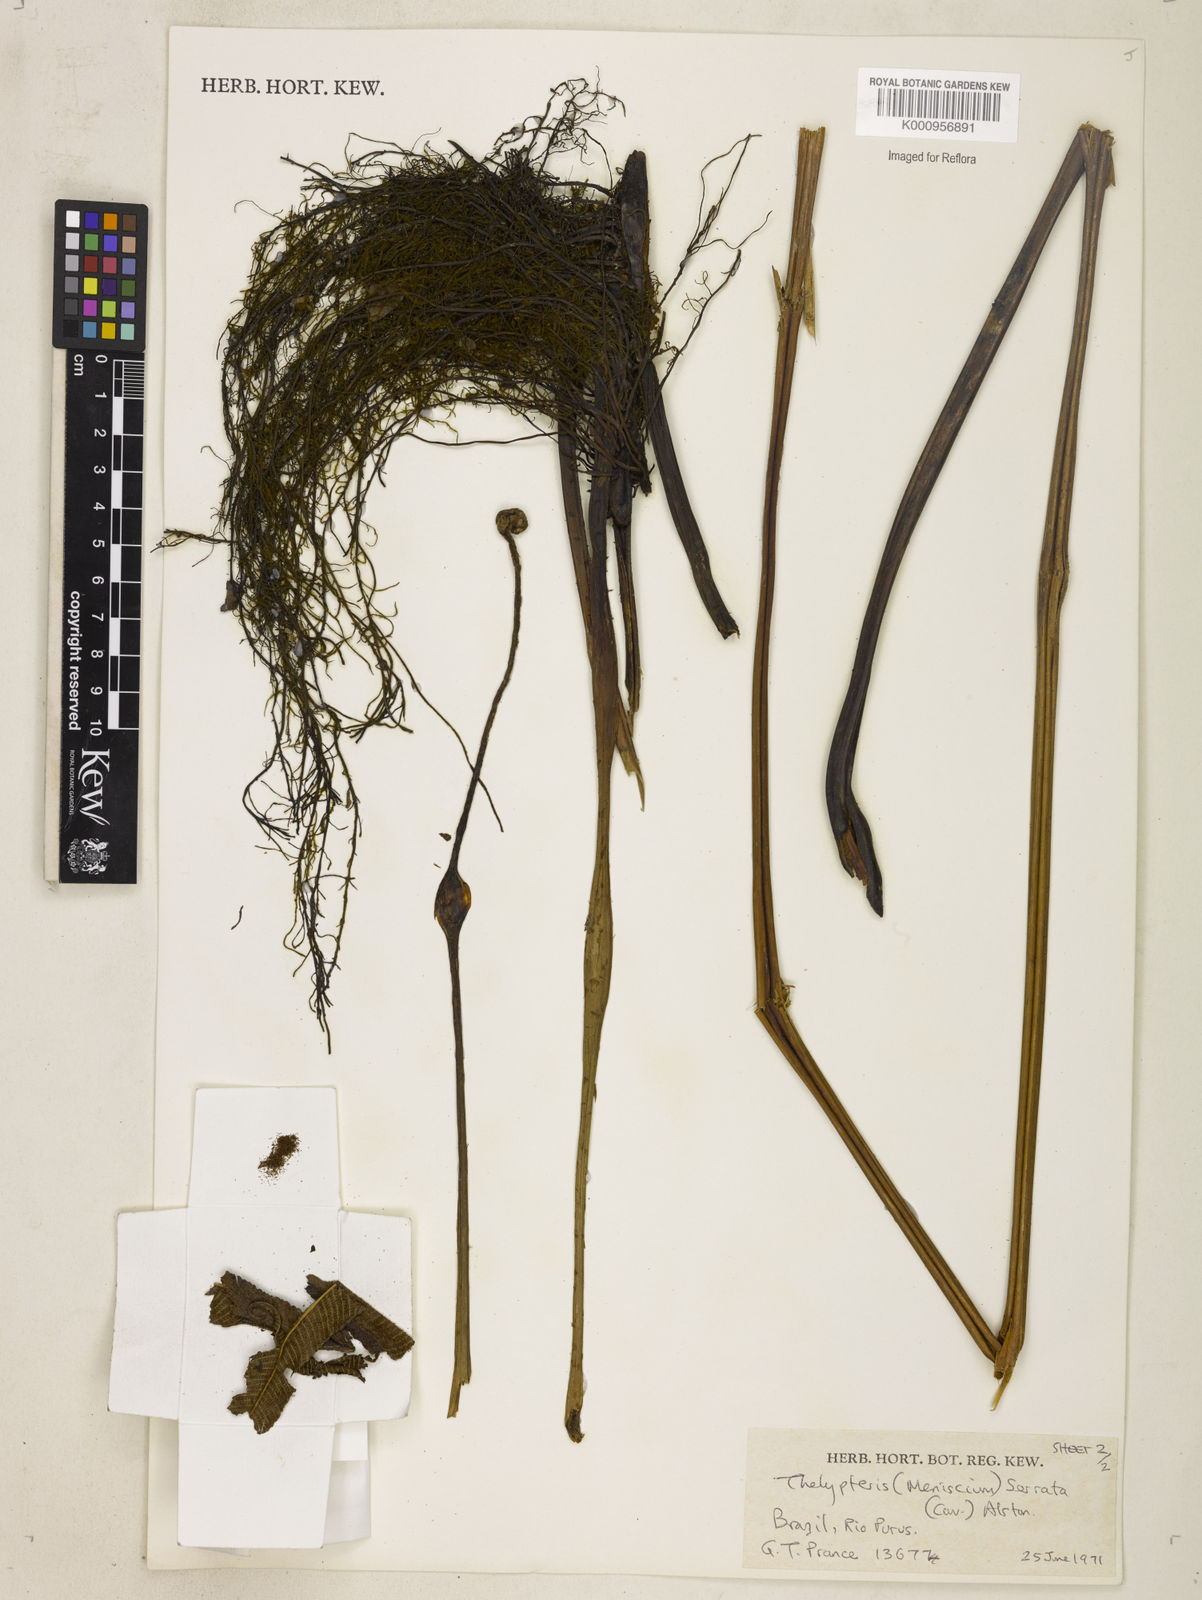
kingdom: Plantae
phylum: Tracheophyta
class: Polypodiopsida
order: Polypodiales
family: Thelypteridaceae
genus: Meniscium
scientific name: Meniscium serratum
